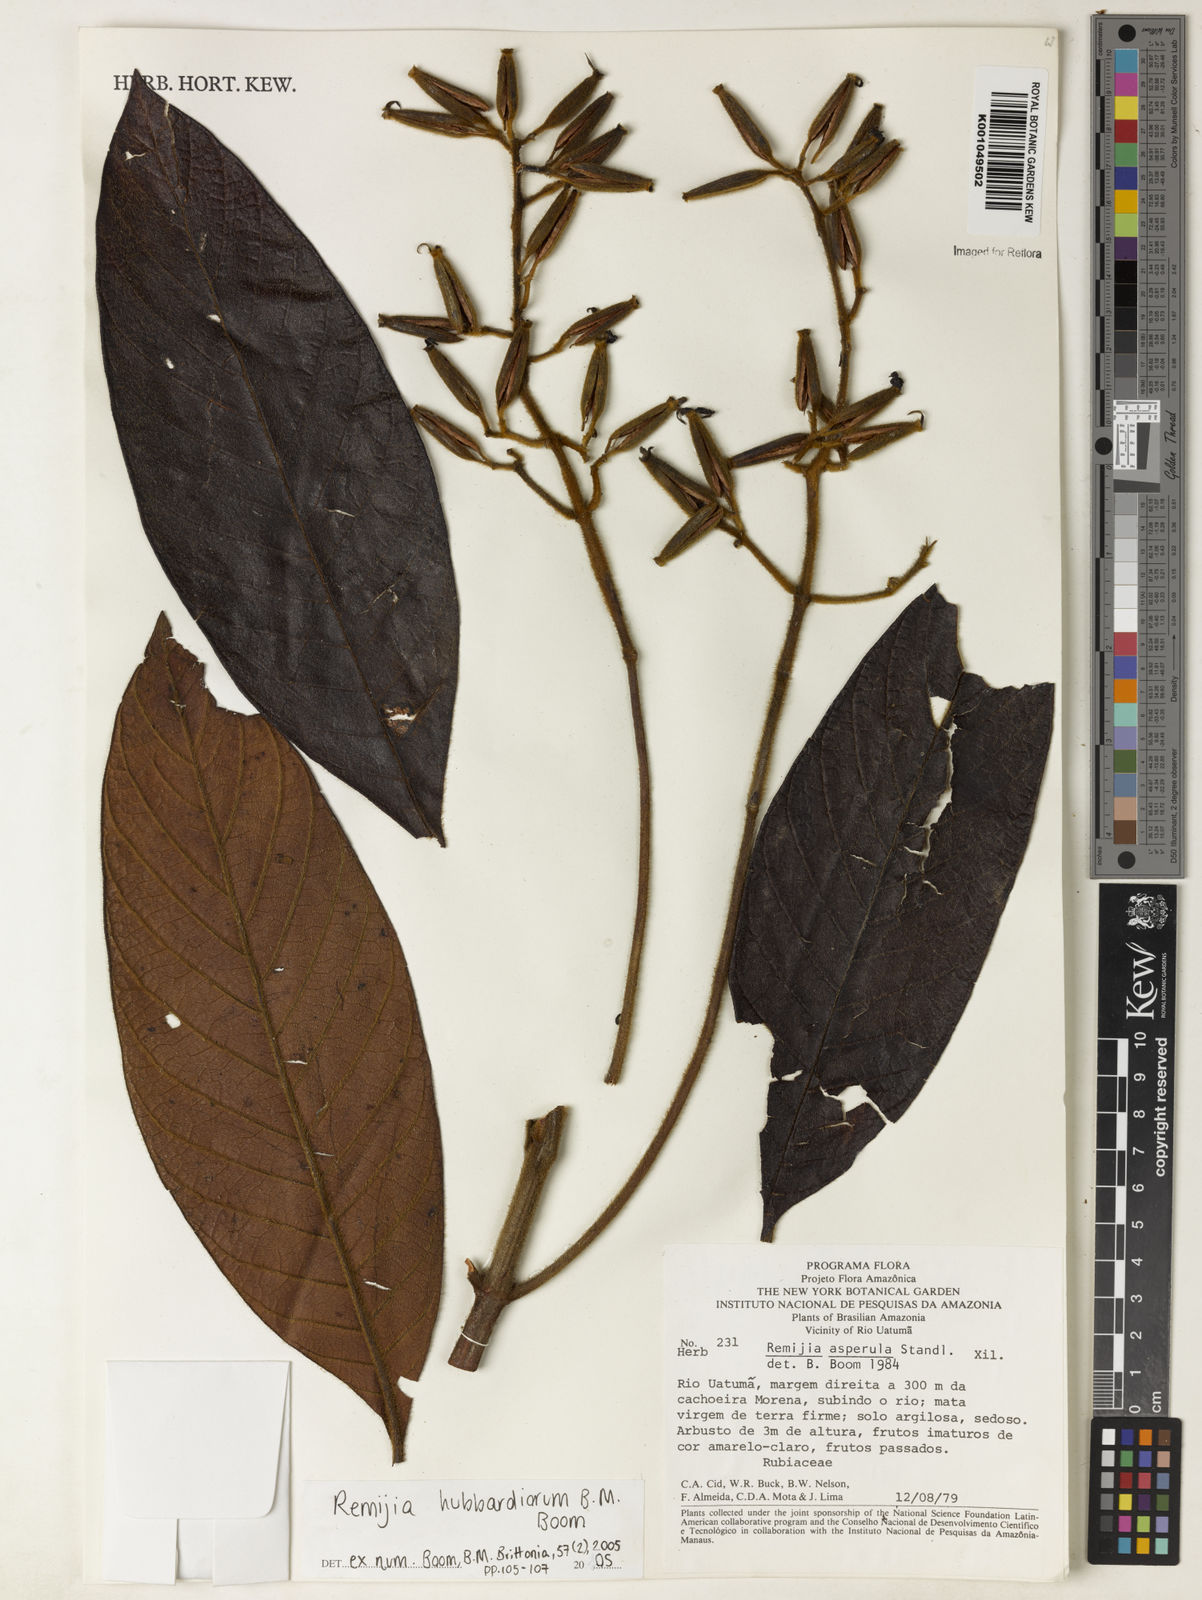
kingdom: Plantae
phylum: Tracheophyta
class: Magnoliopsida
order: Gentianales
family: Rubiaceae
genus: Remijia
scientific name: Remijia hubbardiorum
